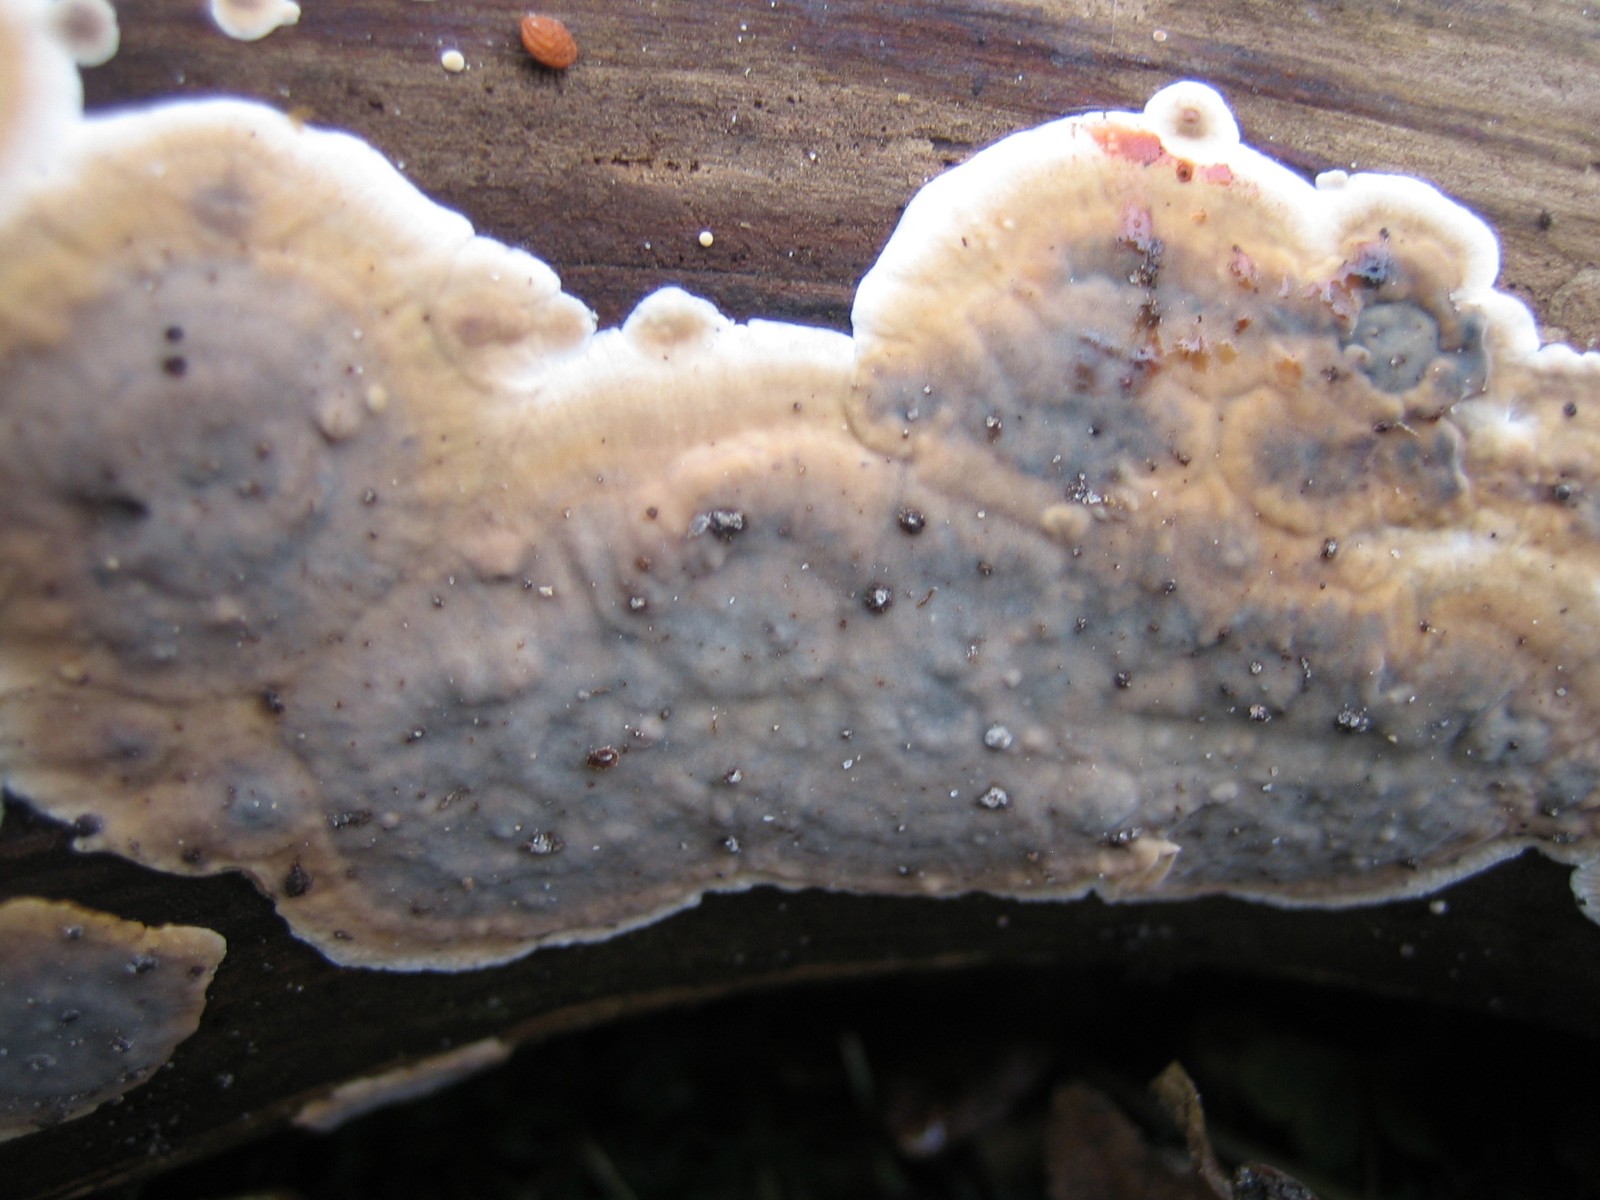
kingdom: Fungi
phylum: Basidiomycota
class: Agaricomycetes
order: Russulales
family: Stereaceae
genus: Stereum
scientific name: Stereum rugosum
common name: rynket lædersvamp
